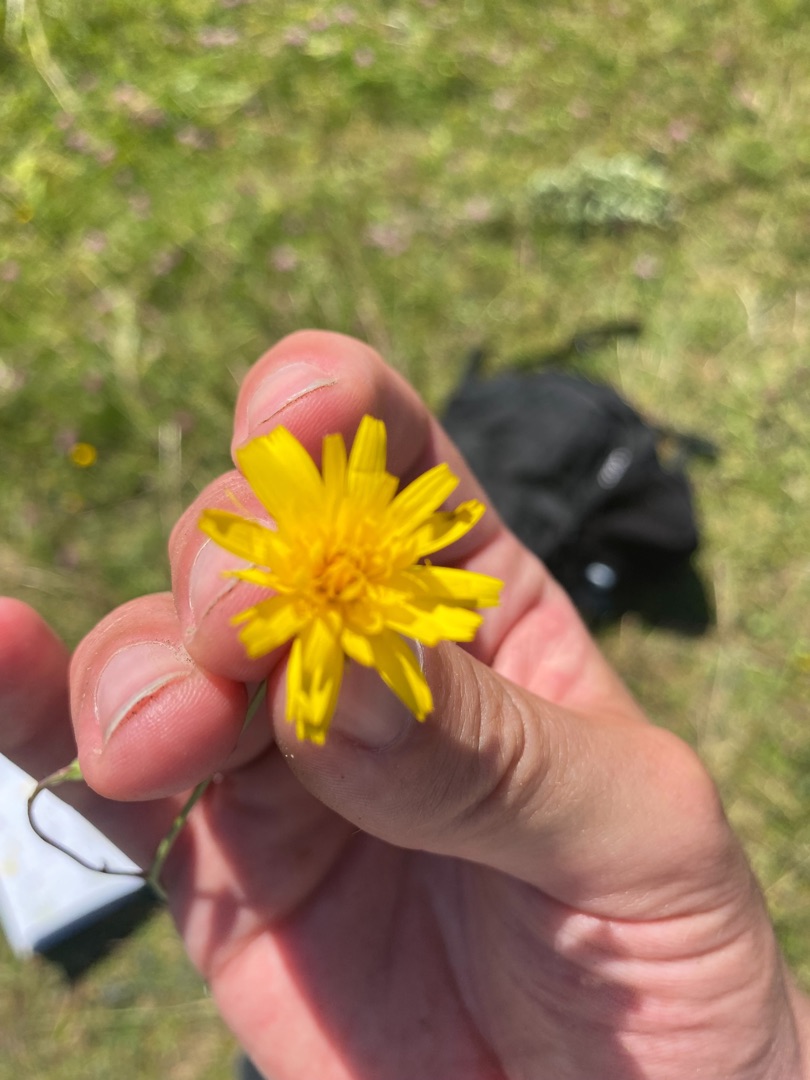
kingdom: Plantae
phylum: Tracheophyta
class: Magnoliopsida
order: Asterales
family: Asteraceae
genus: Hypochaeris
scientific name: Hypochaeris radicata
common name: Almindelig kongepen
